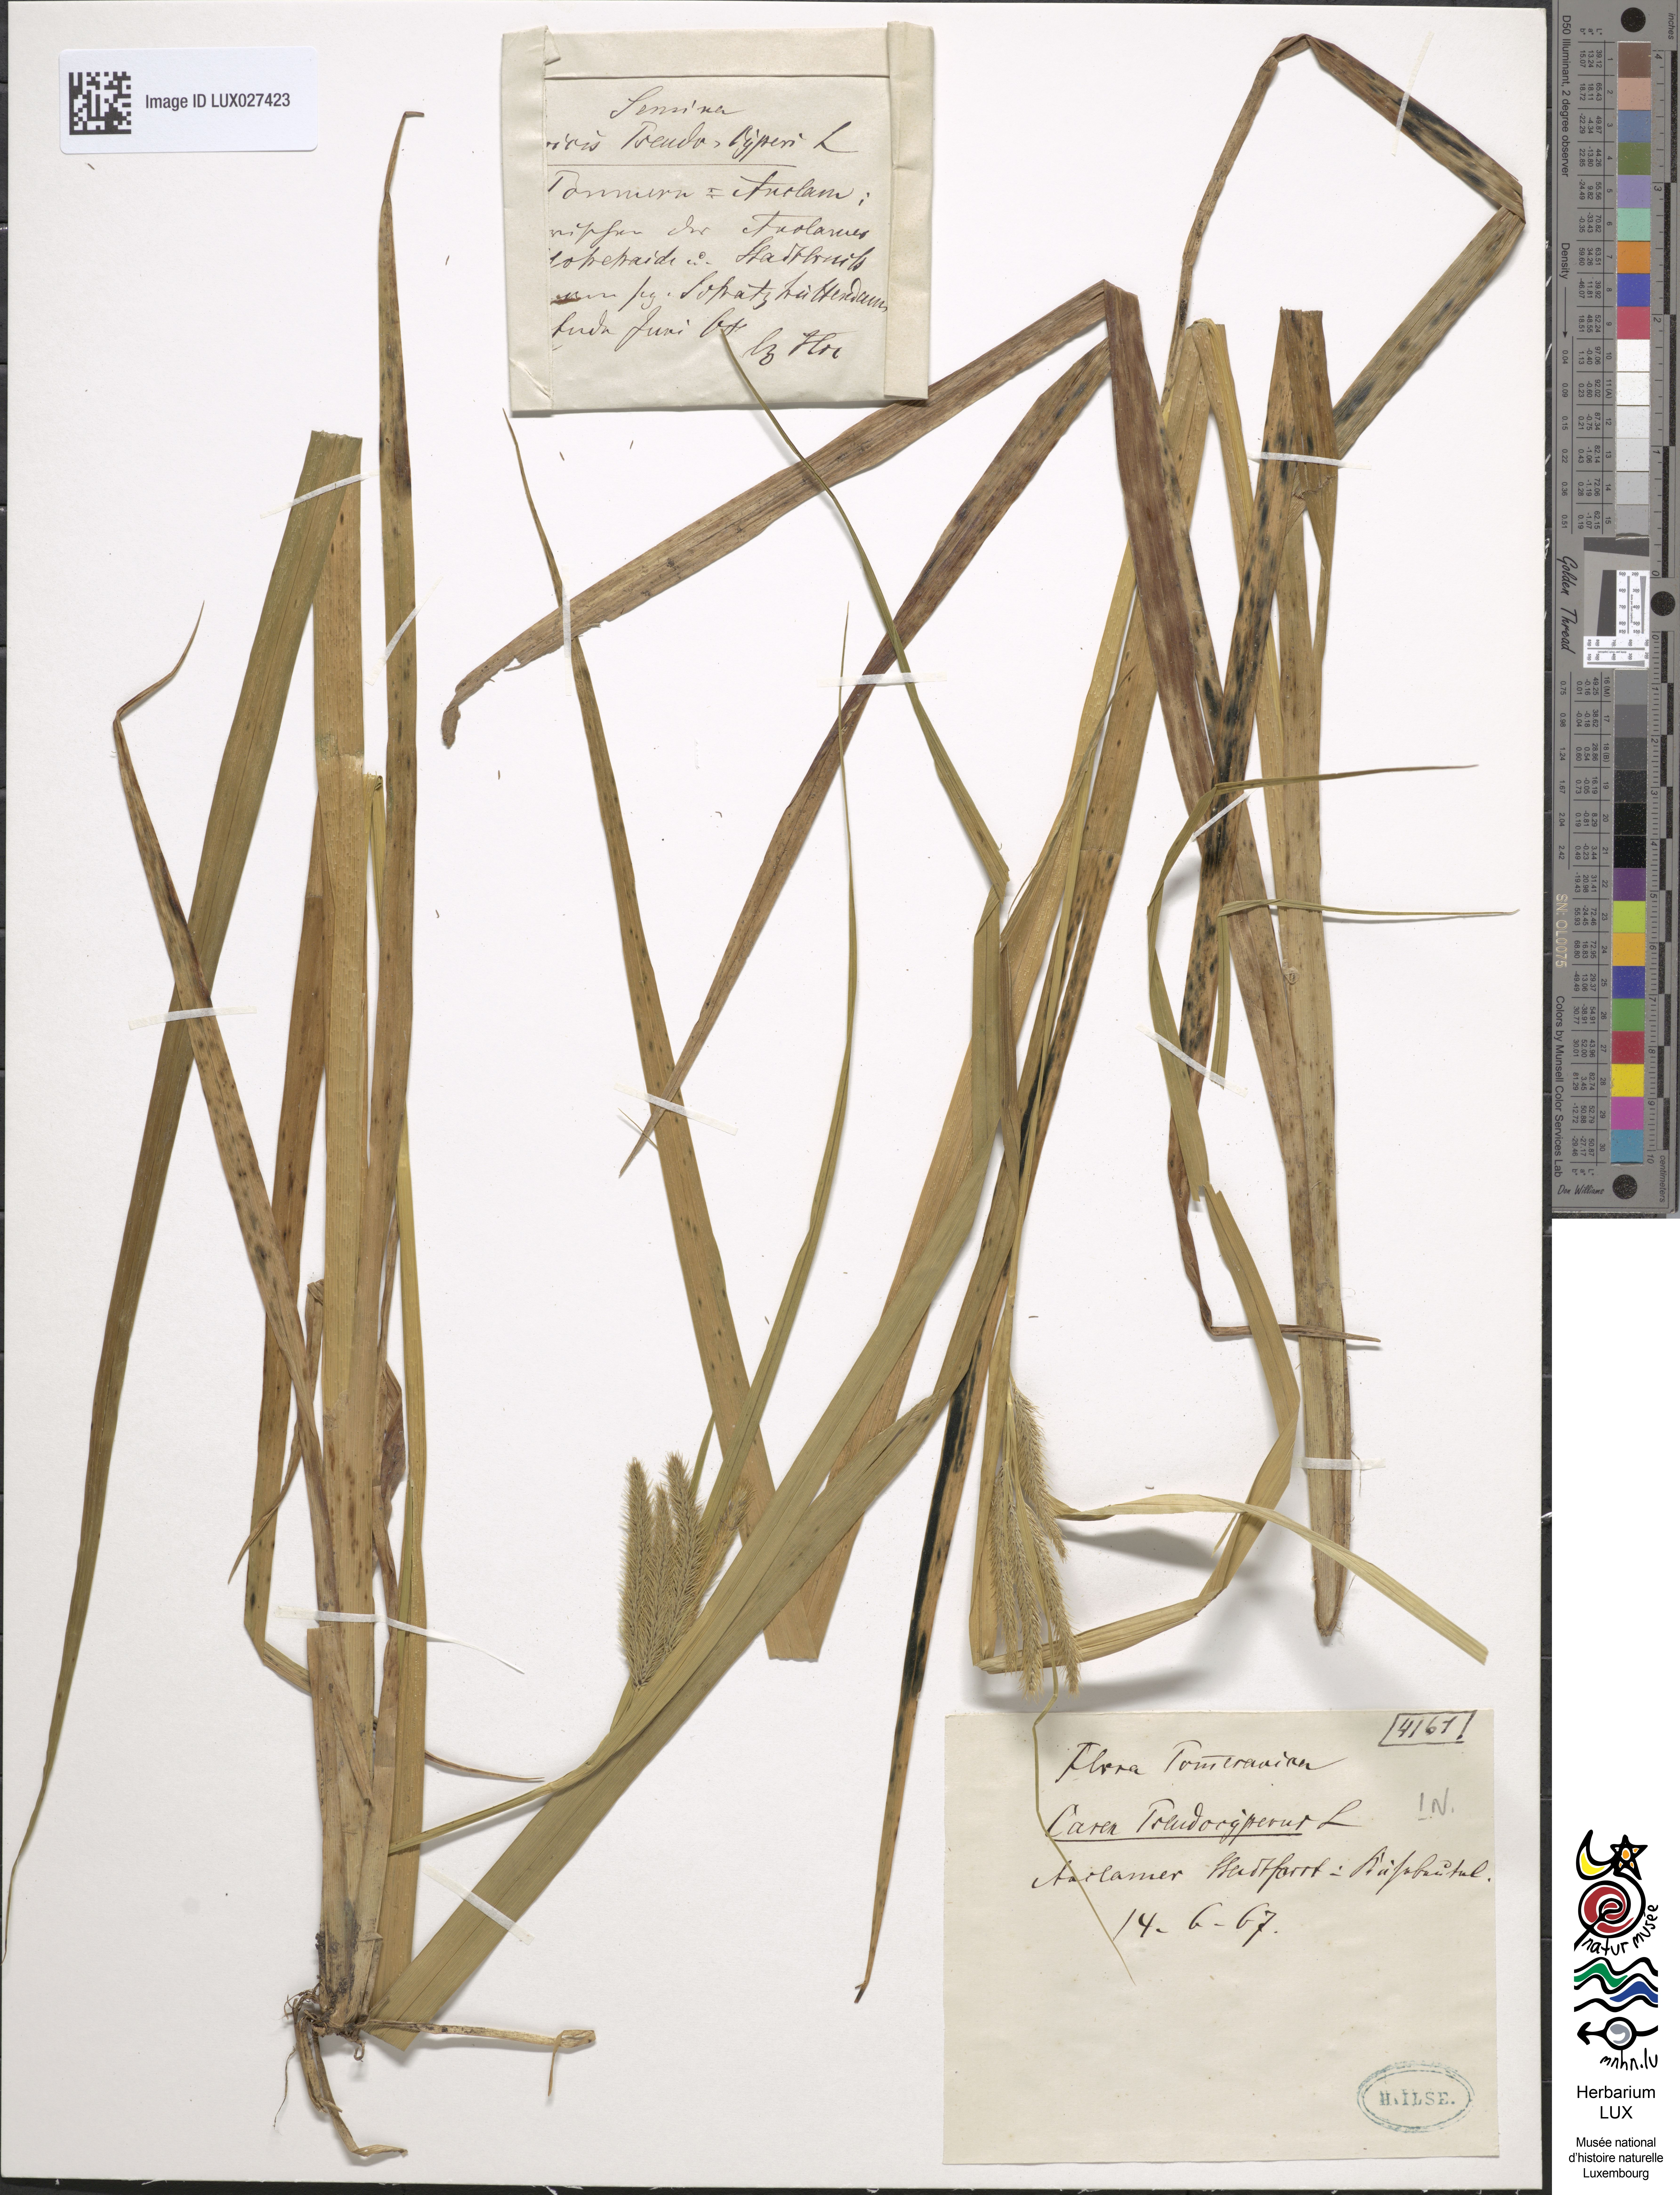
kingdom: Plantae
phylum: Tracheophyta
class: Liliopsida
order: Poales
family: Cyperaceae
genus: Carex
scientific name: Carex pseudocyperus
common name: Cyperus sedge
